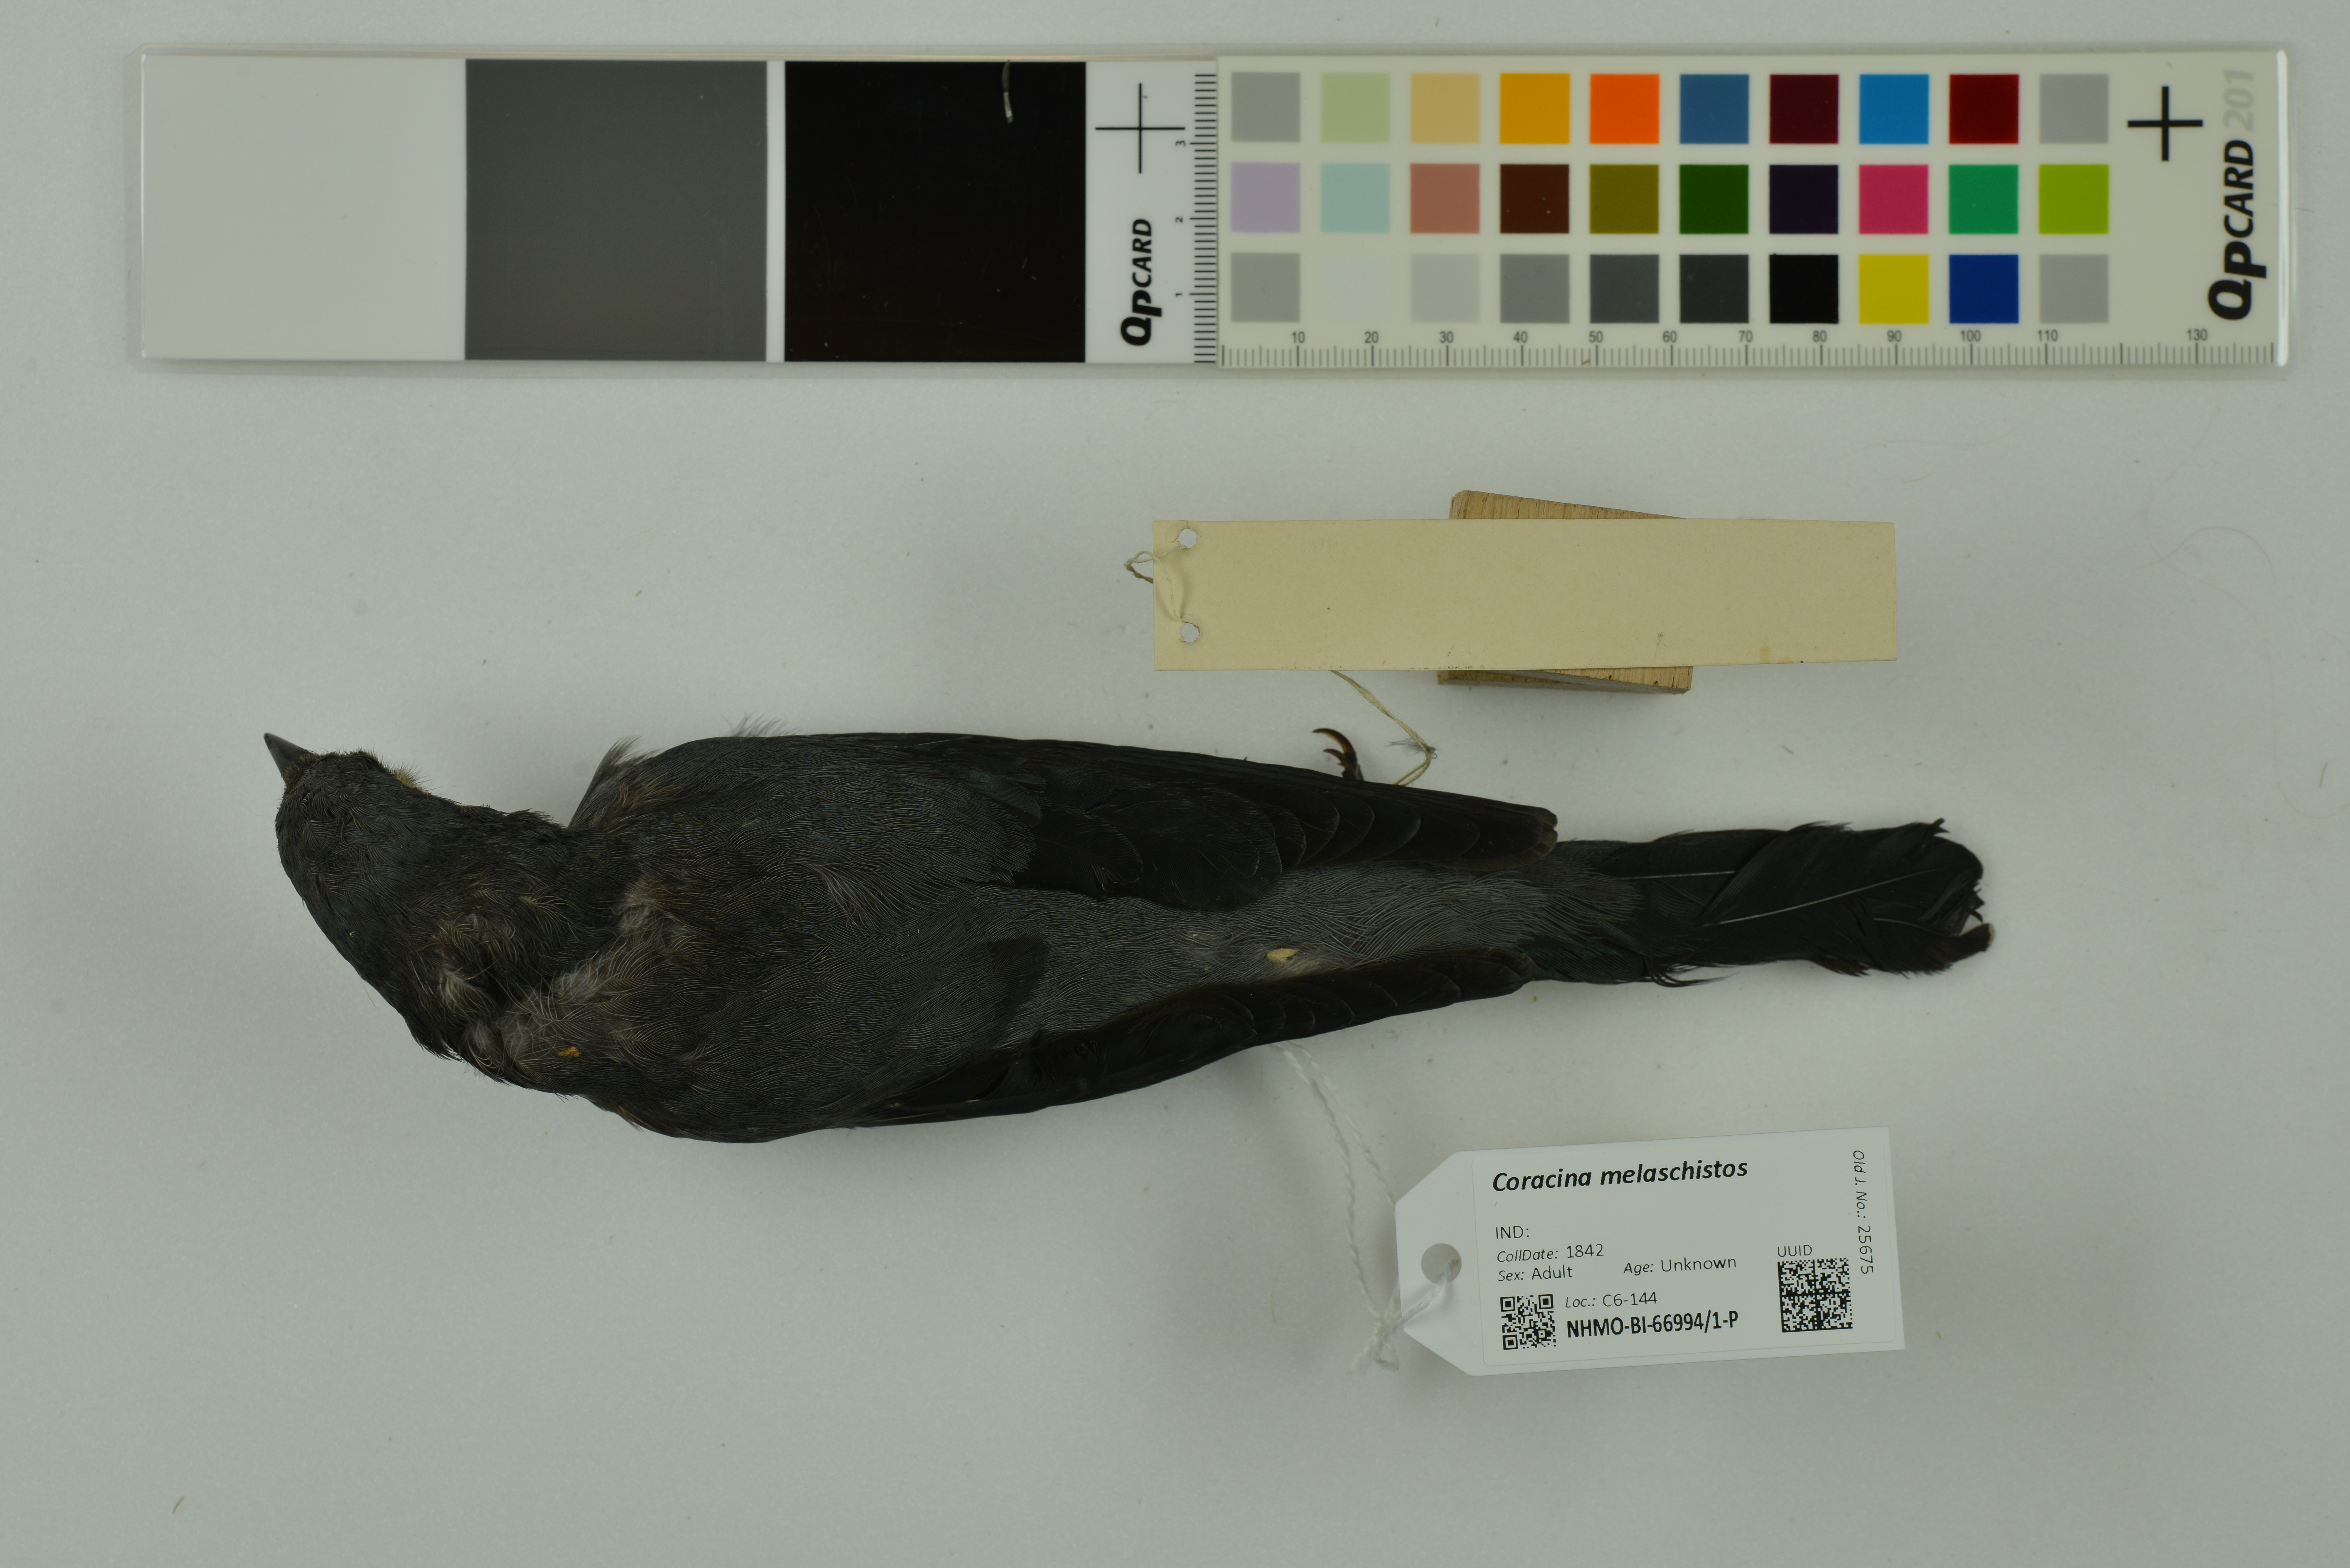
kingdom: Animalia
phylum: Chordata
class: Aves
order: Passeriformes
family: Campephagidae
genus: Coracina
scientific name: Coracina melaschistos
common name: Black-winged cuckooshrike
